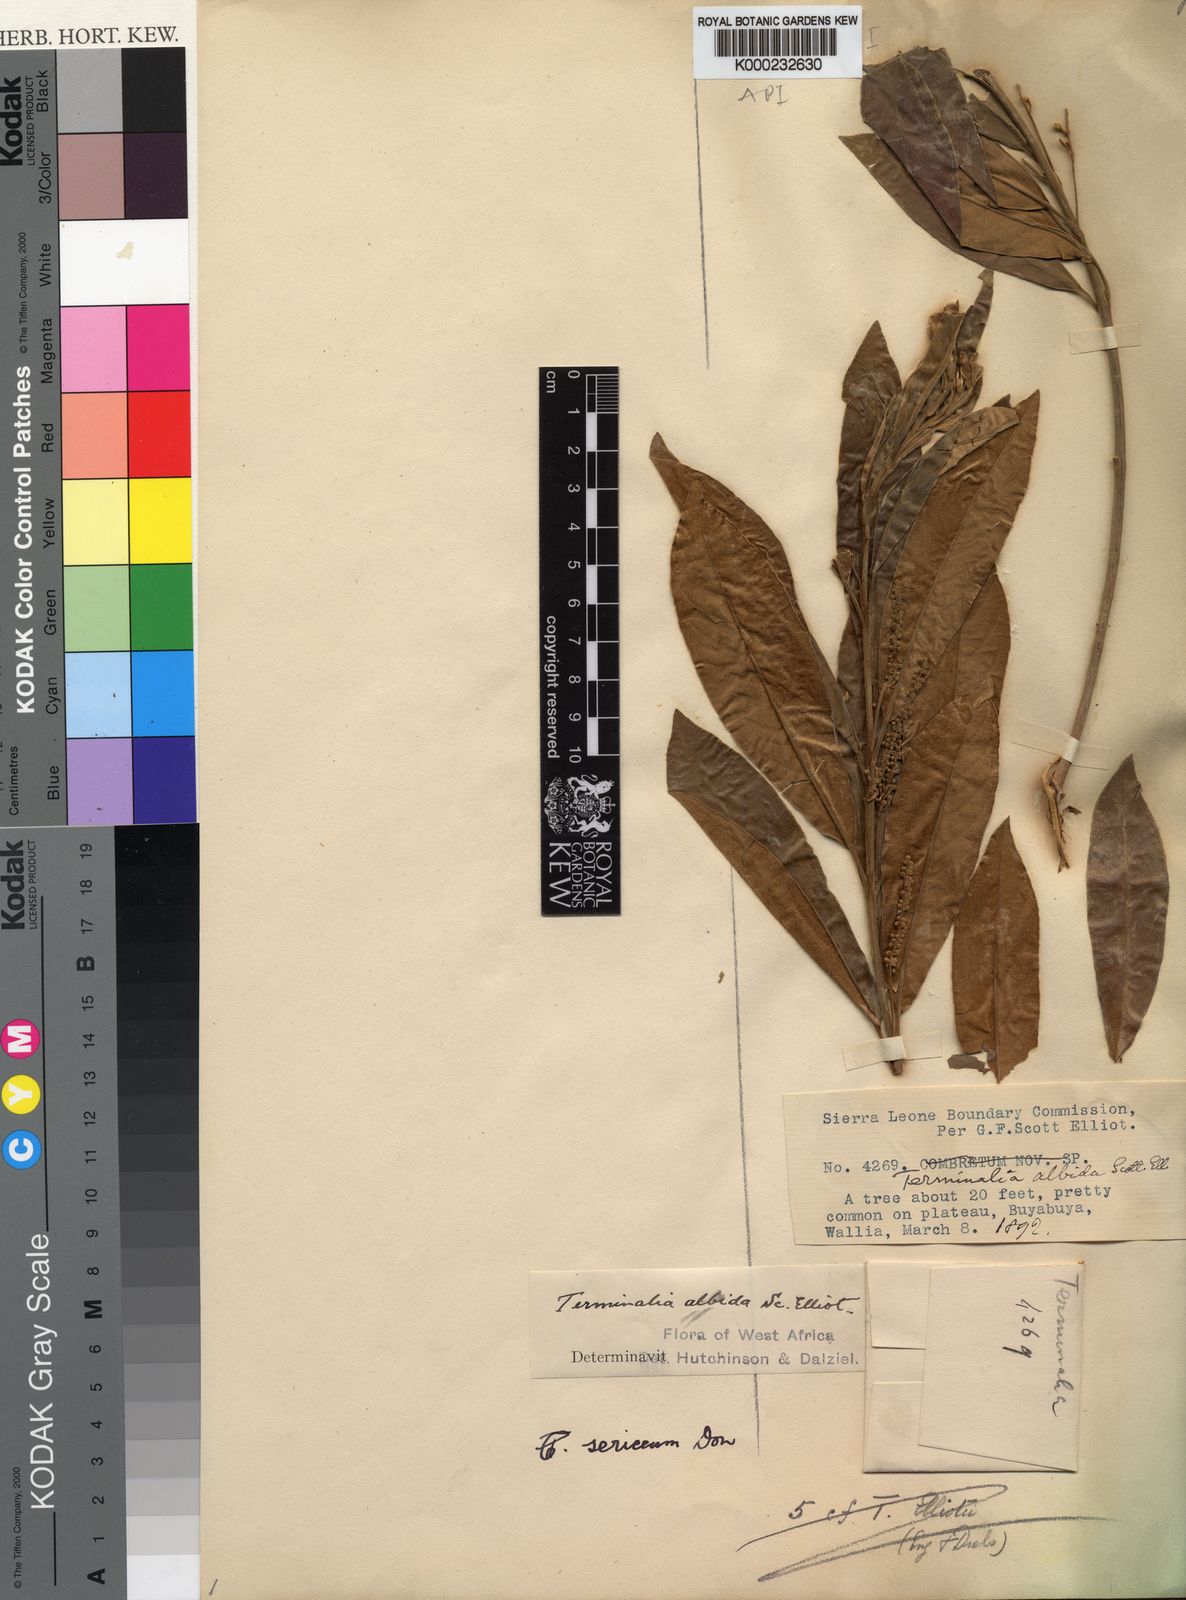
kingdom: Plantae
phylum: Tracheophyta
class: Magnoliopsida
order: Myrtales
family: Combretaceae
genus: Terminalia
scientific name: Terminalia albida
